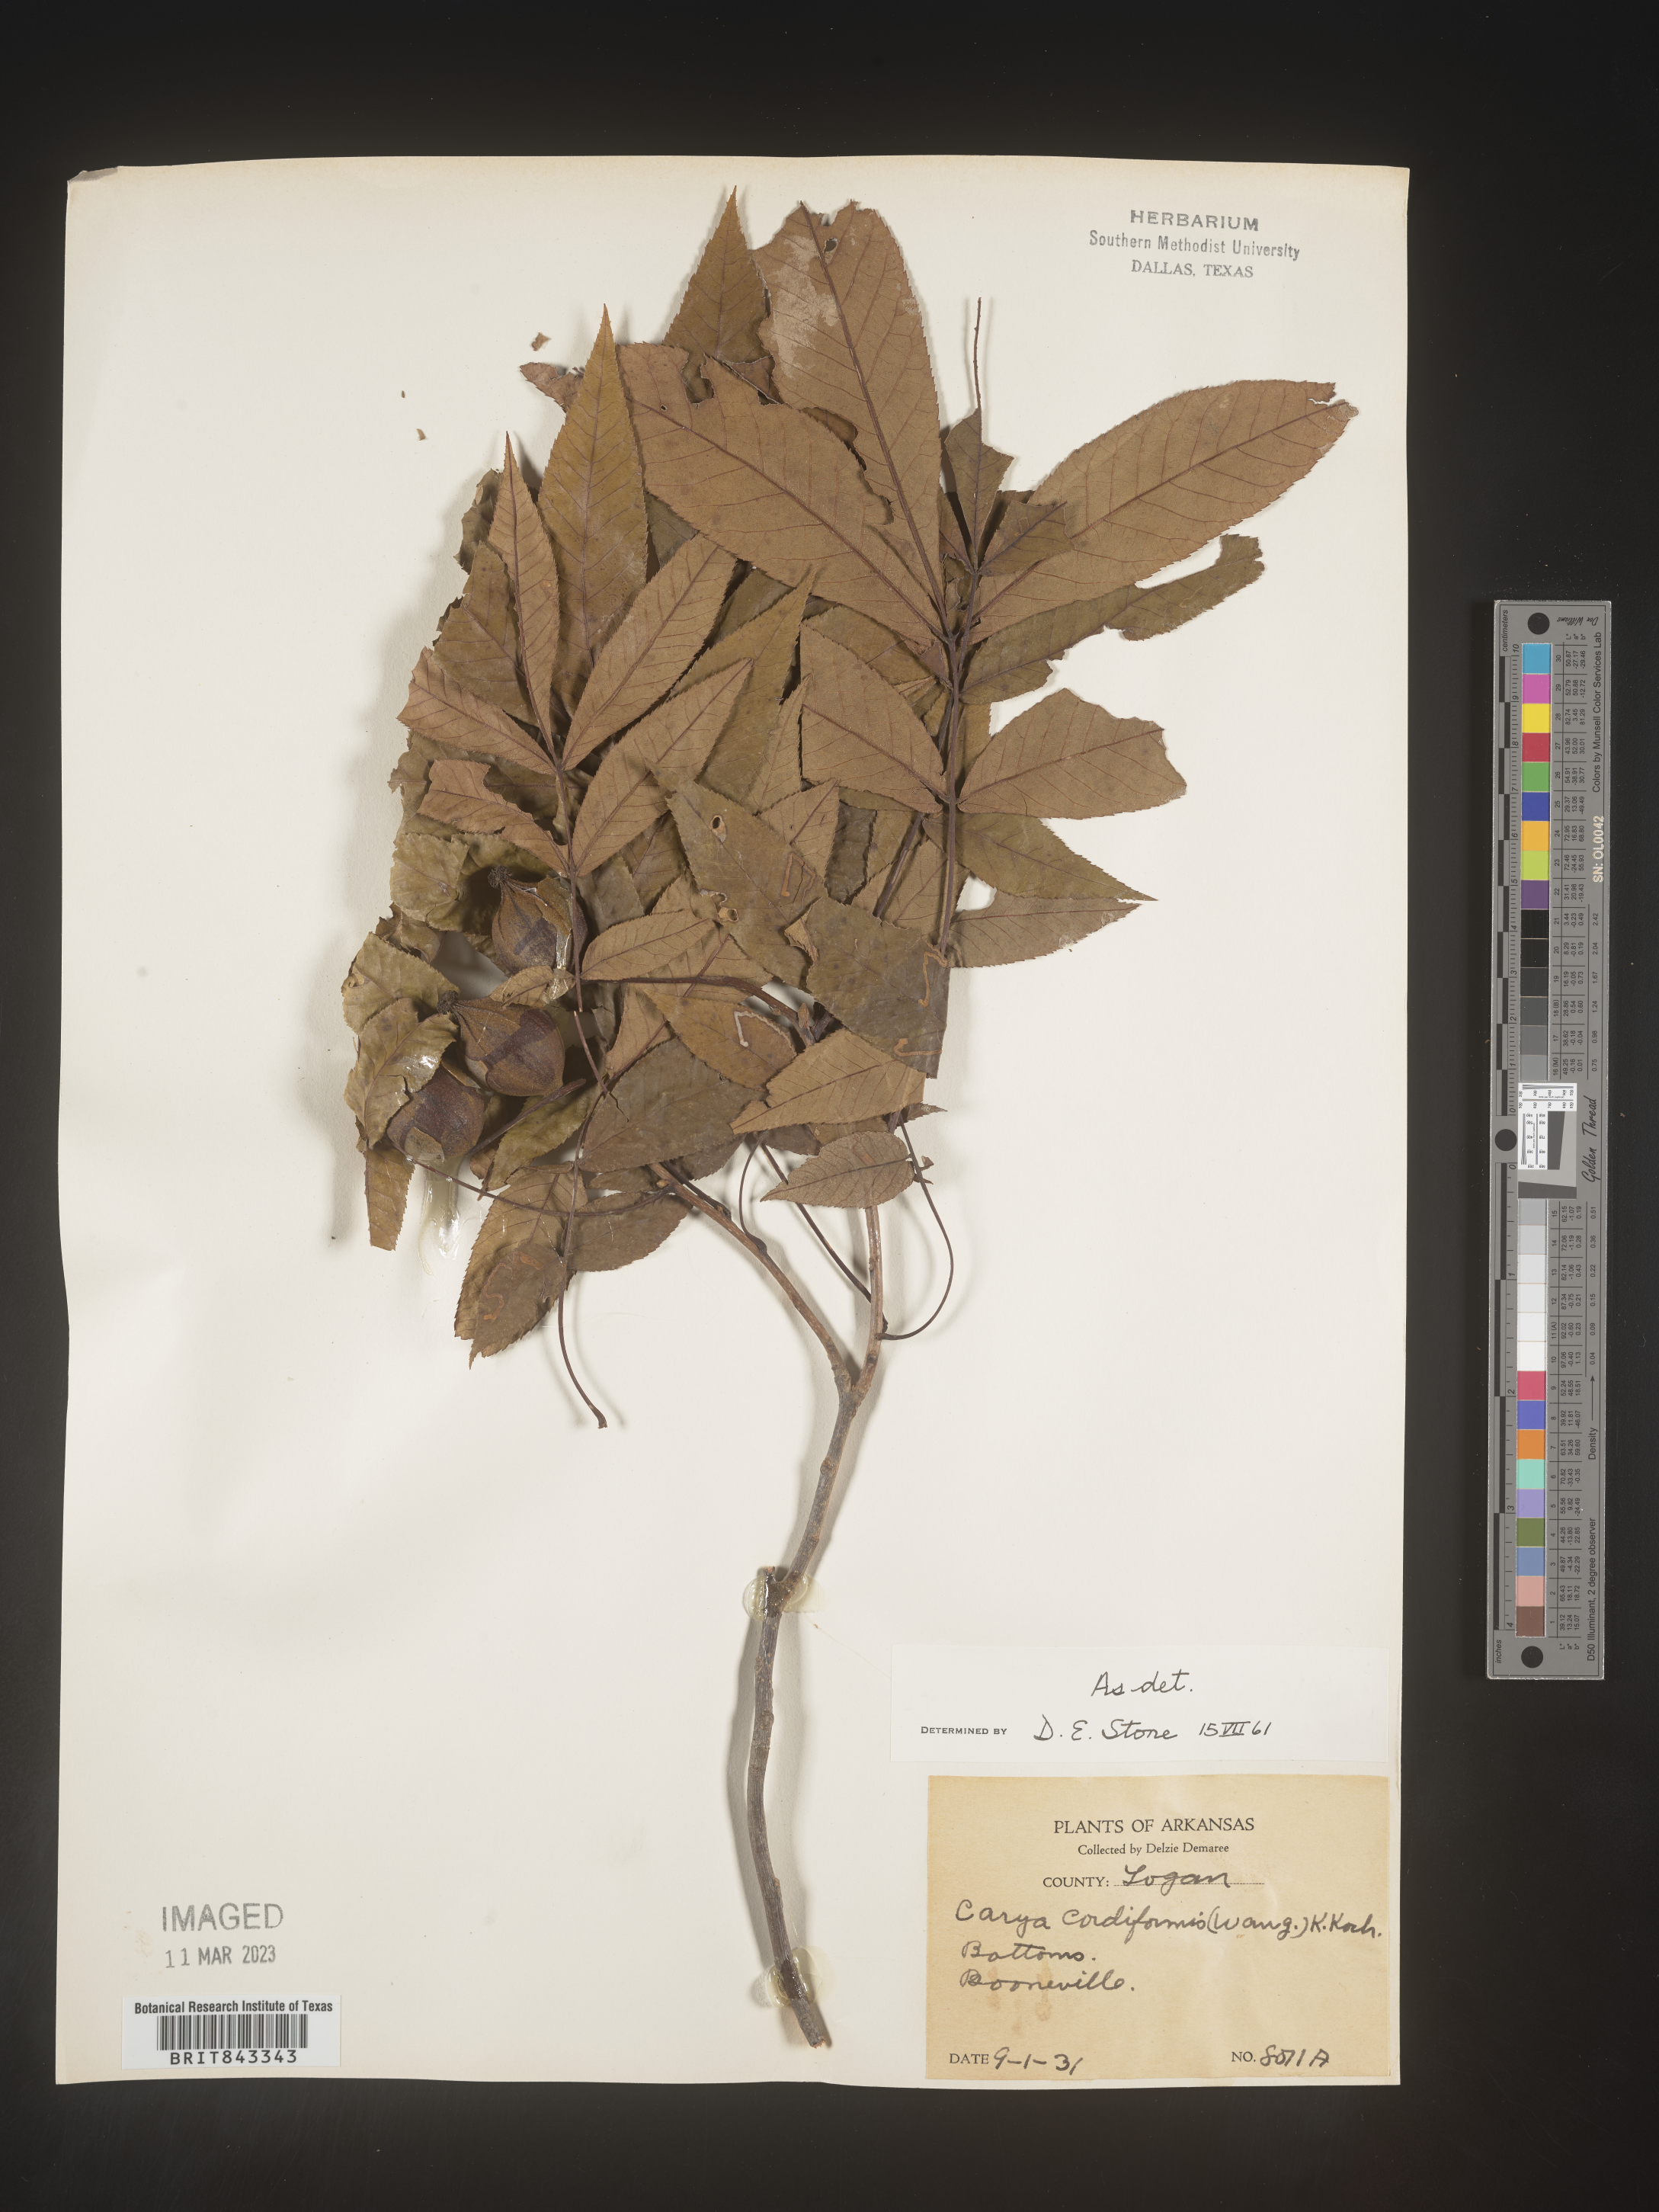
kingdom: Plantae
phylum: Tracheophyta
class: Magnoliopsida
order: Fagales
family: Juglandaceae
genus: Carya
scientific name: Carya cordiformis
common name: Bitternut hickory
